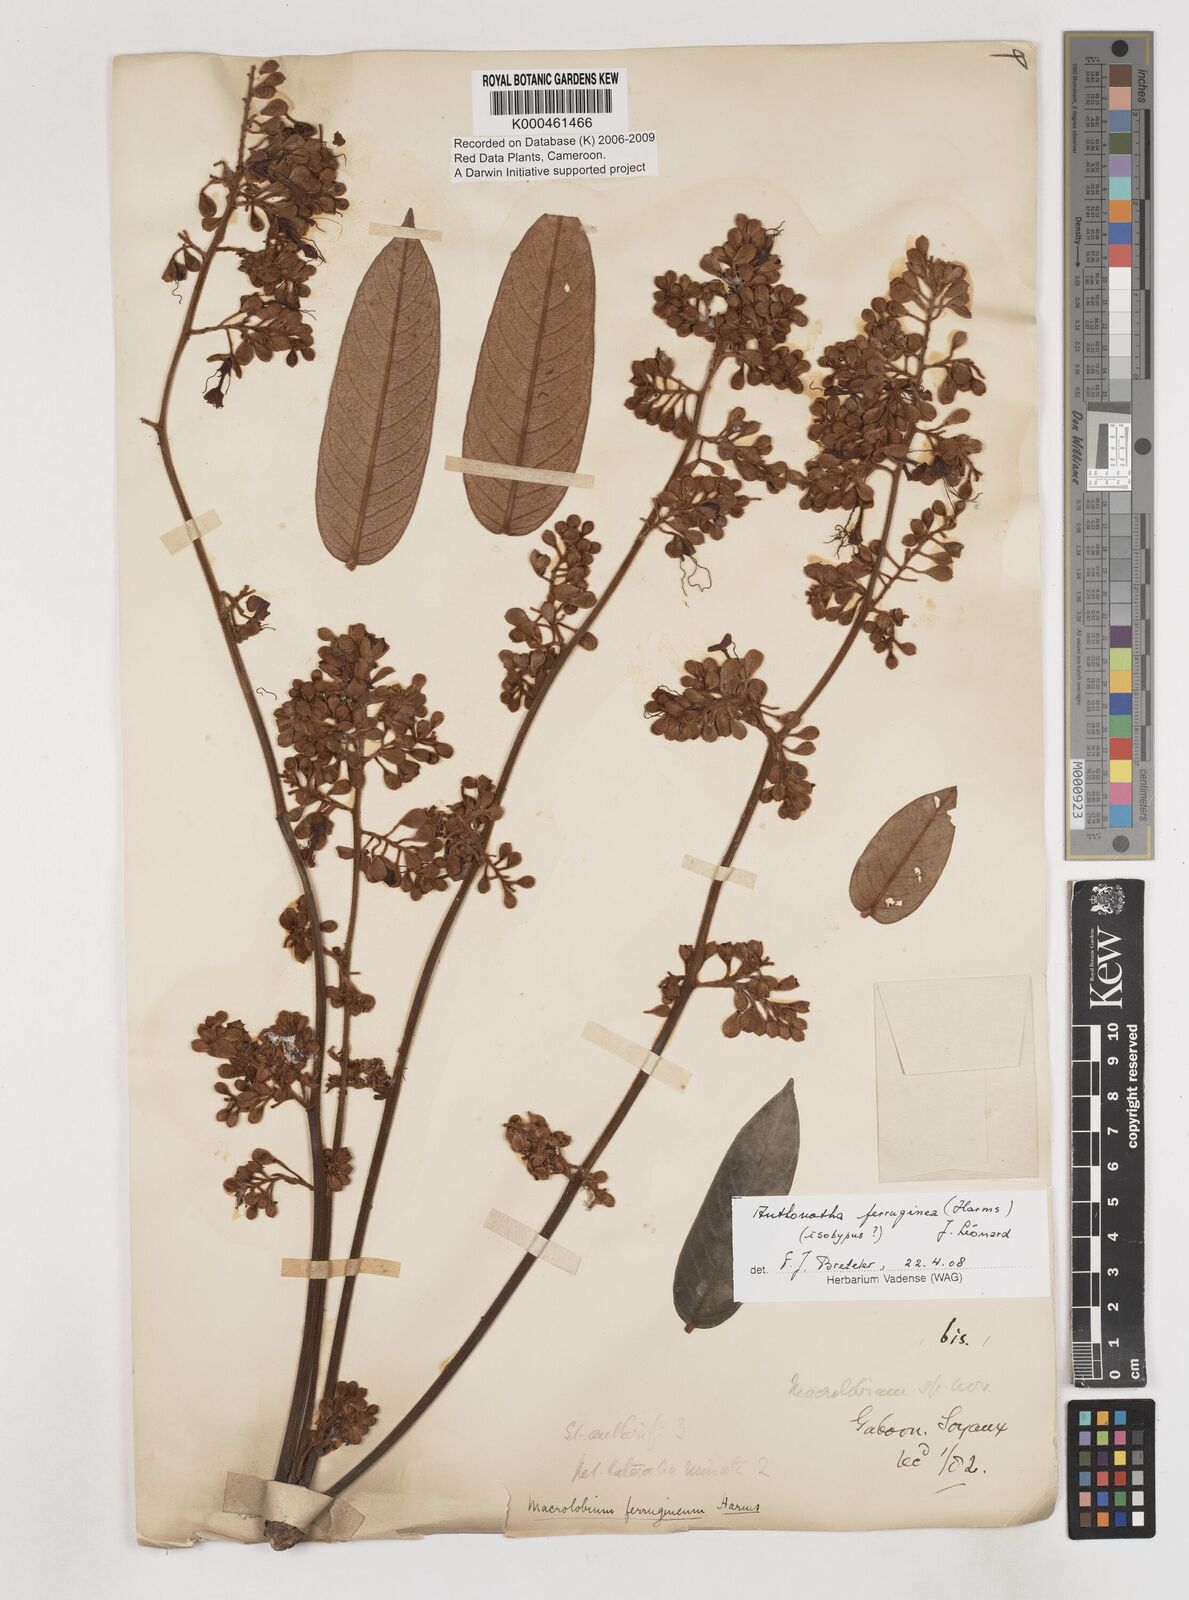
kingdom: Plantae
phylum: Tracheophyta
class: Magnoliopsida
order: Fabales
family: Fabaceae
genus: Anthonotha
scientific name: Anthonotha ferruginea
